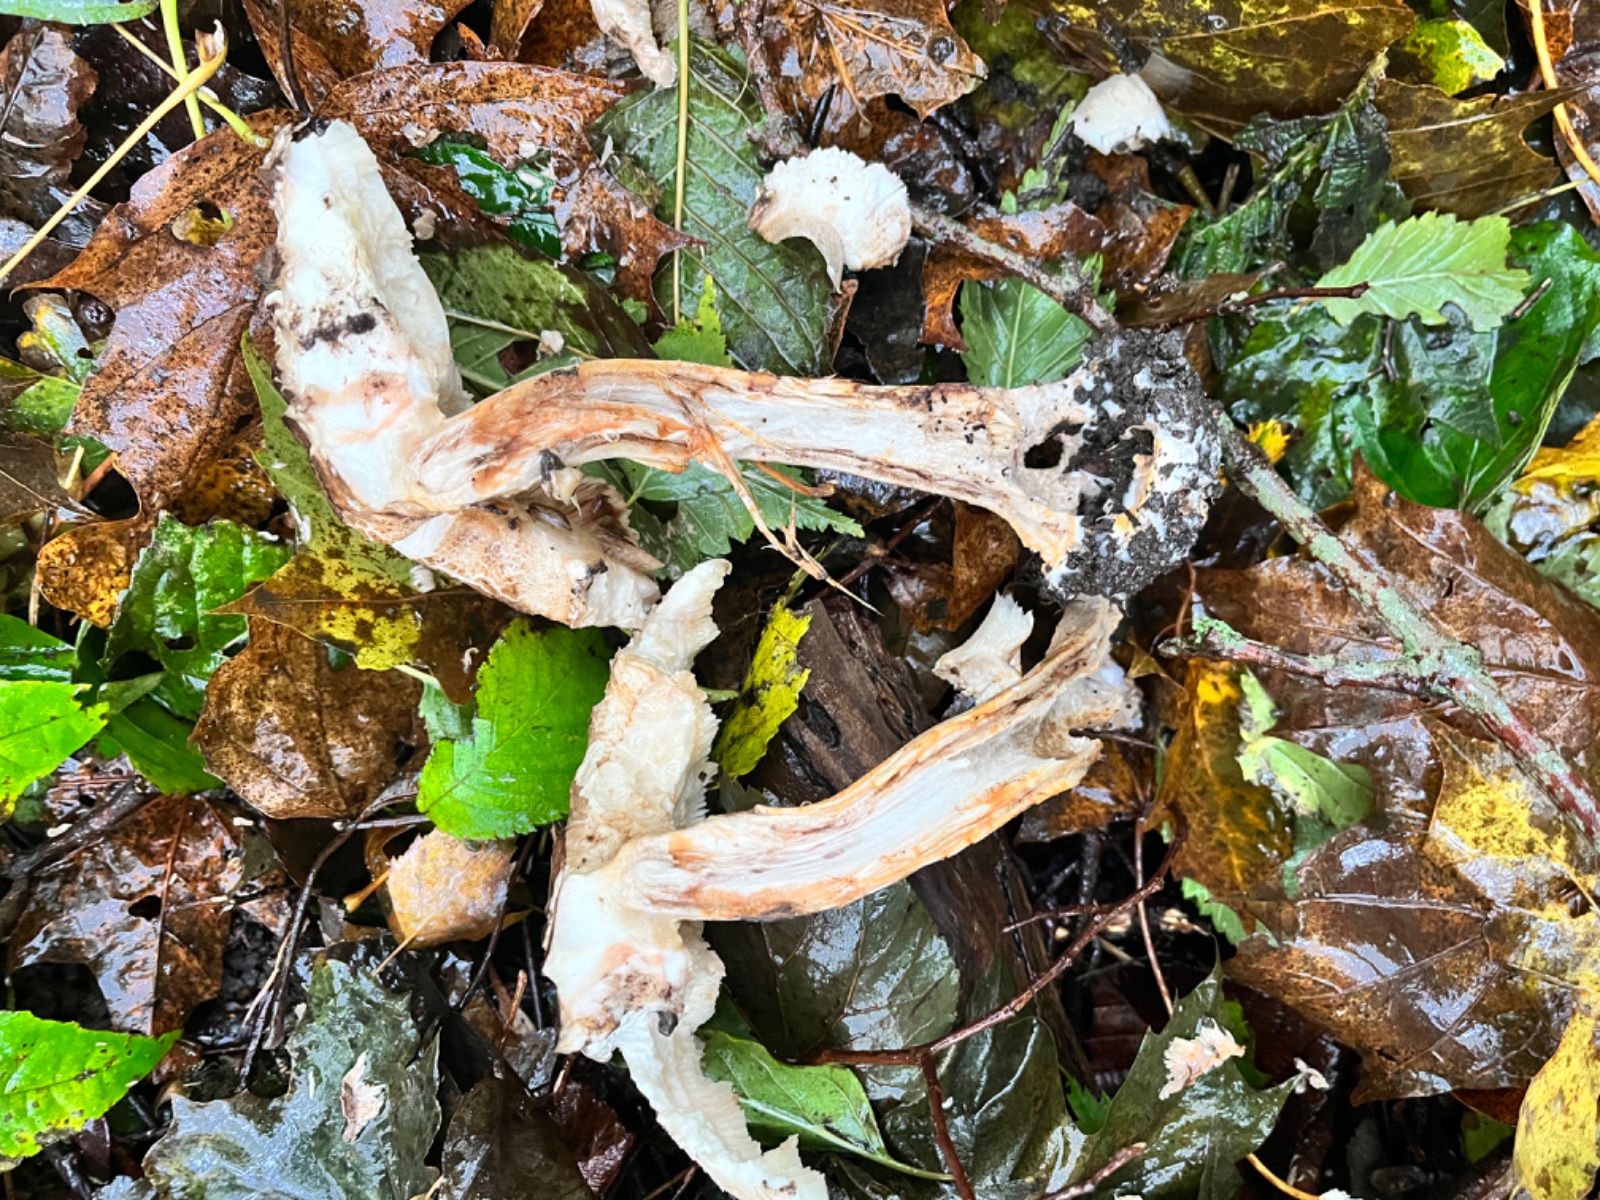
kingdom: Fungi
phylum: Basidiomycota
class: Agaricomycetes
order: Agaricales
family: Agaricaceae
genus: Chlorophyllum
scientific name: Chlorophyllum rhacodes
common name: ægte rabarberhat
